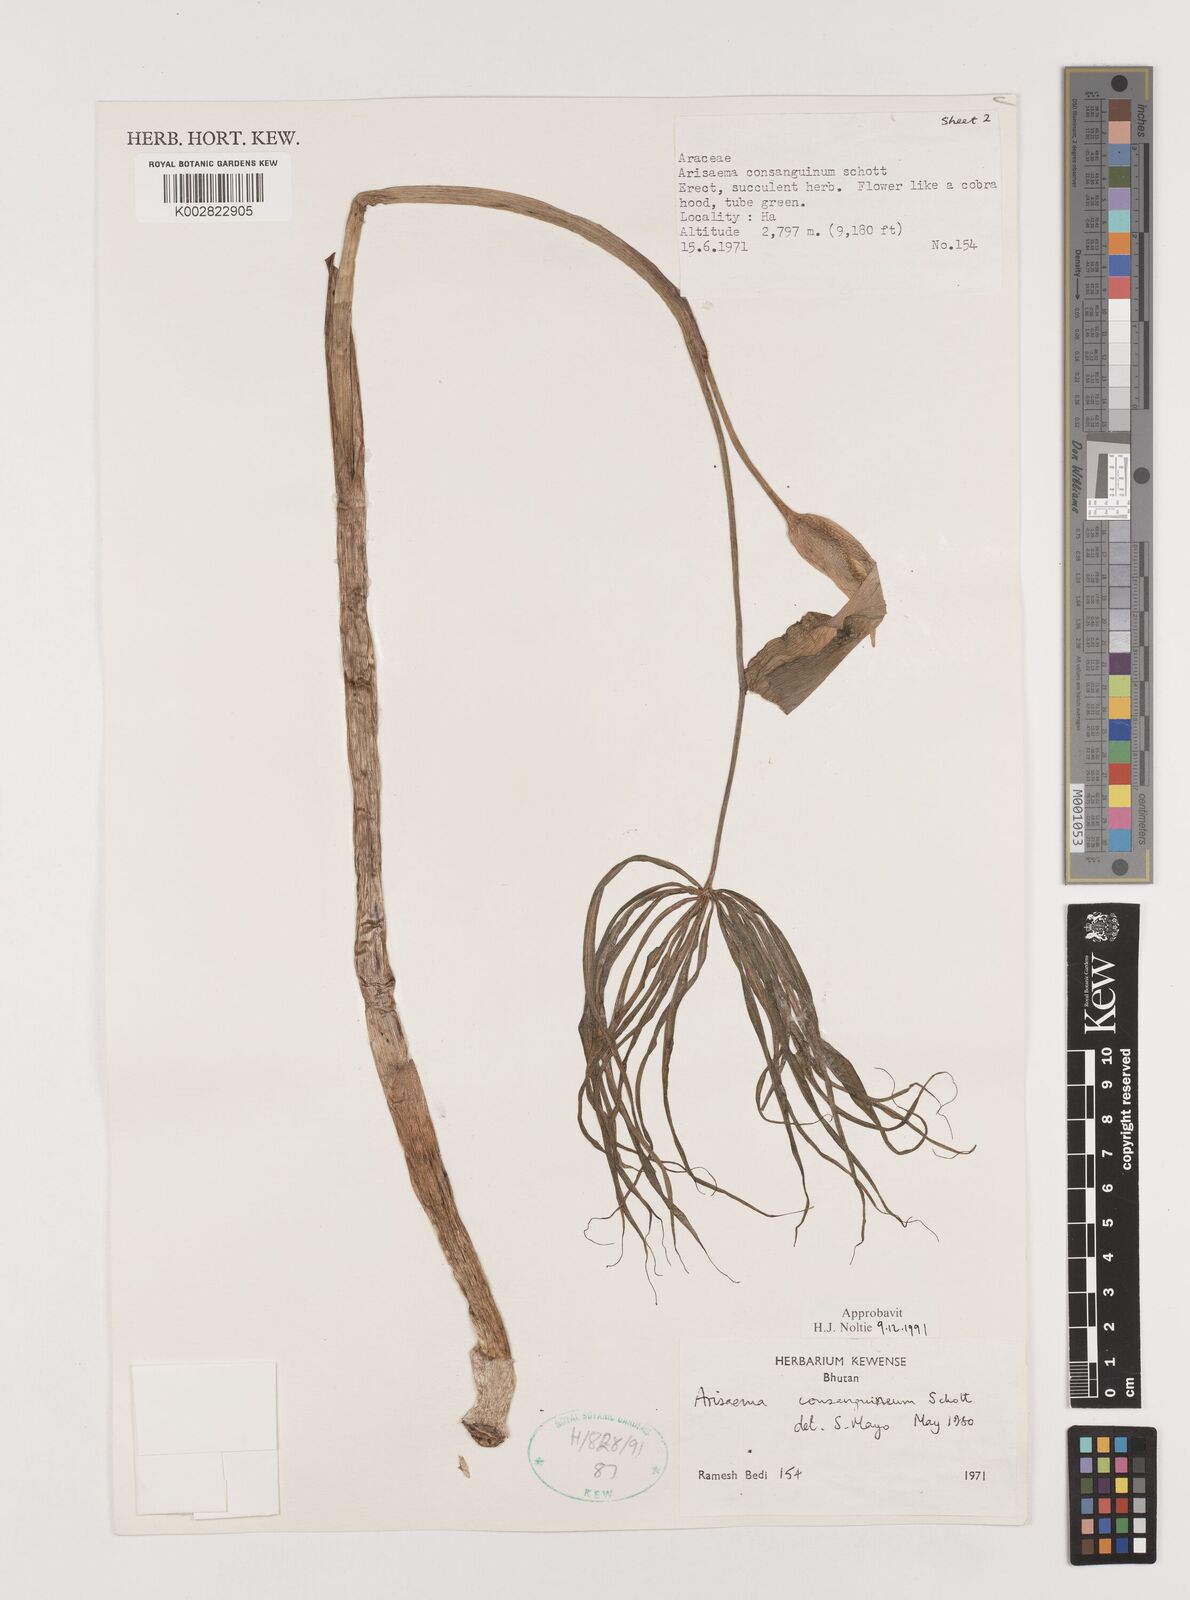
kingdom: Plantae
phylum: Tracheophyta
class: Liliopsida
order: Alismatales
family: Araceae
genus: Arisaema
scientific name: Arisaema erubescens
